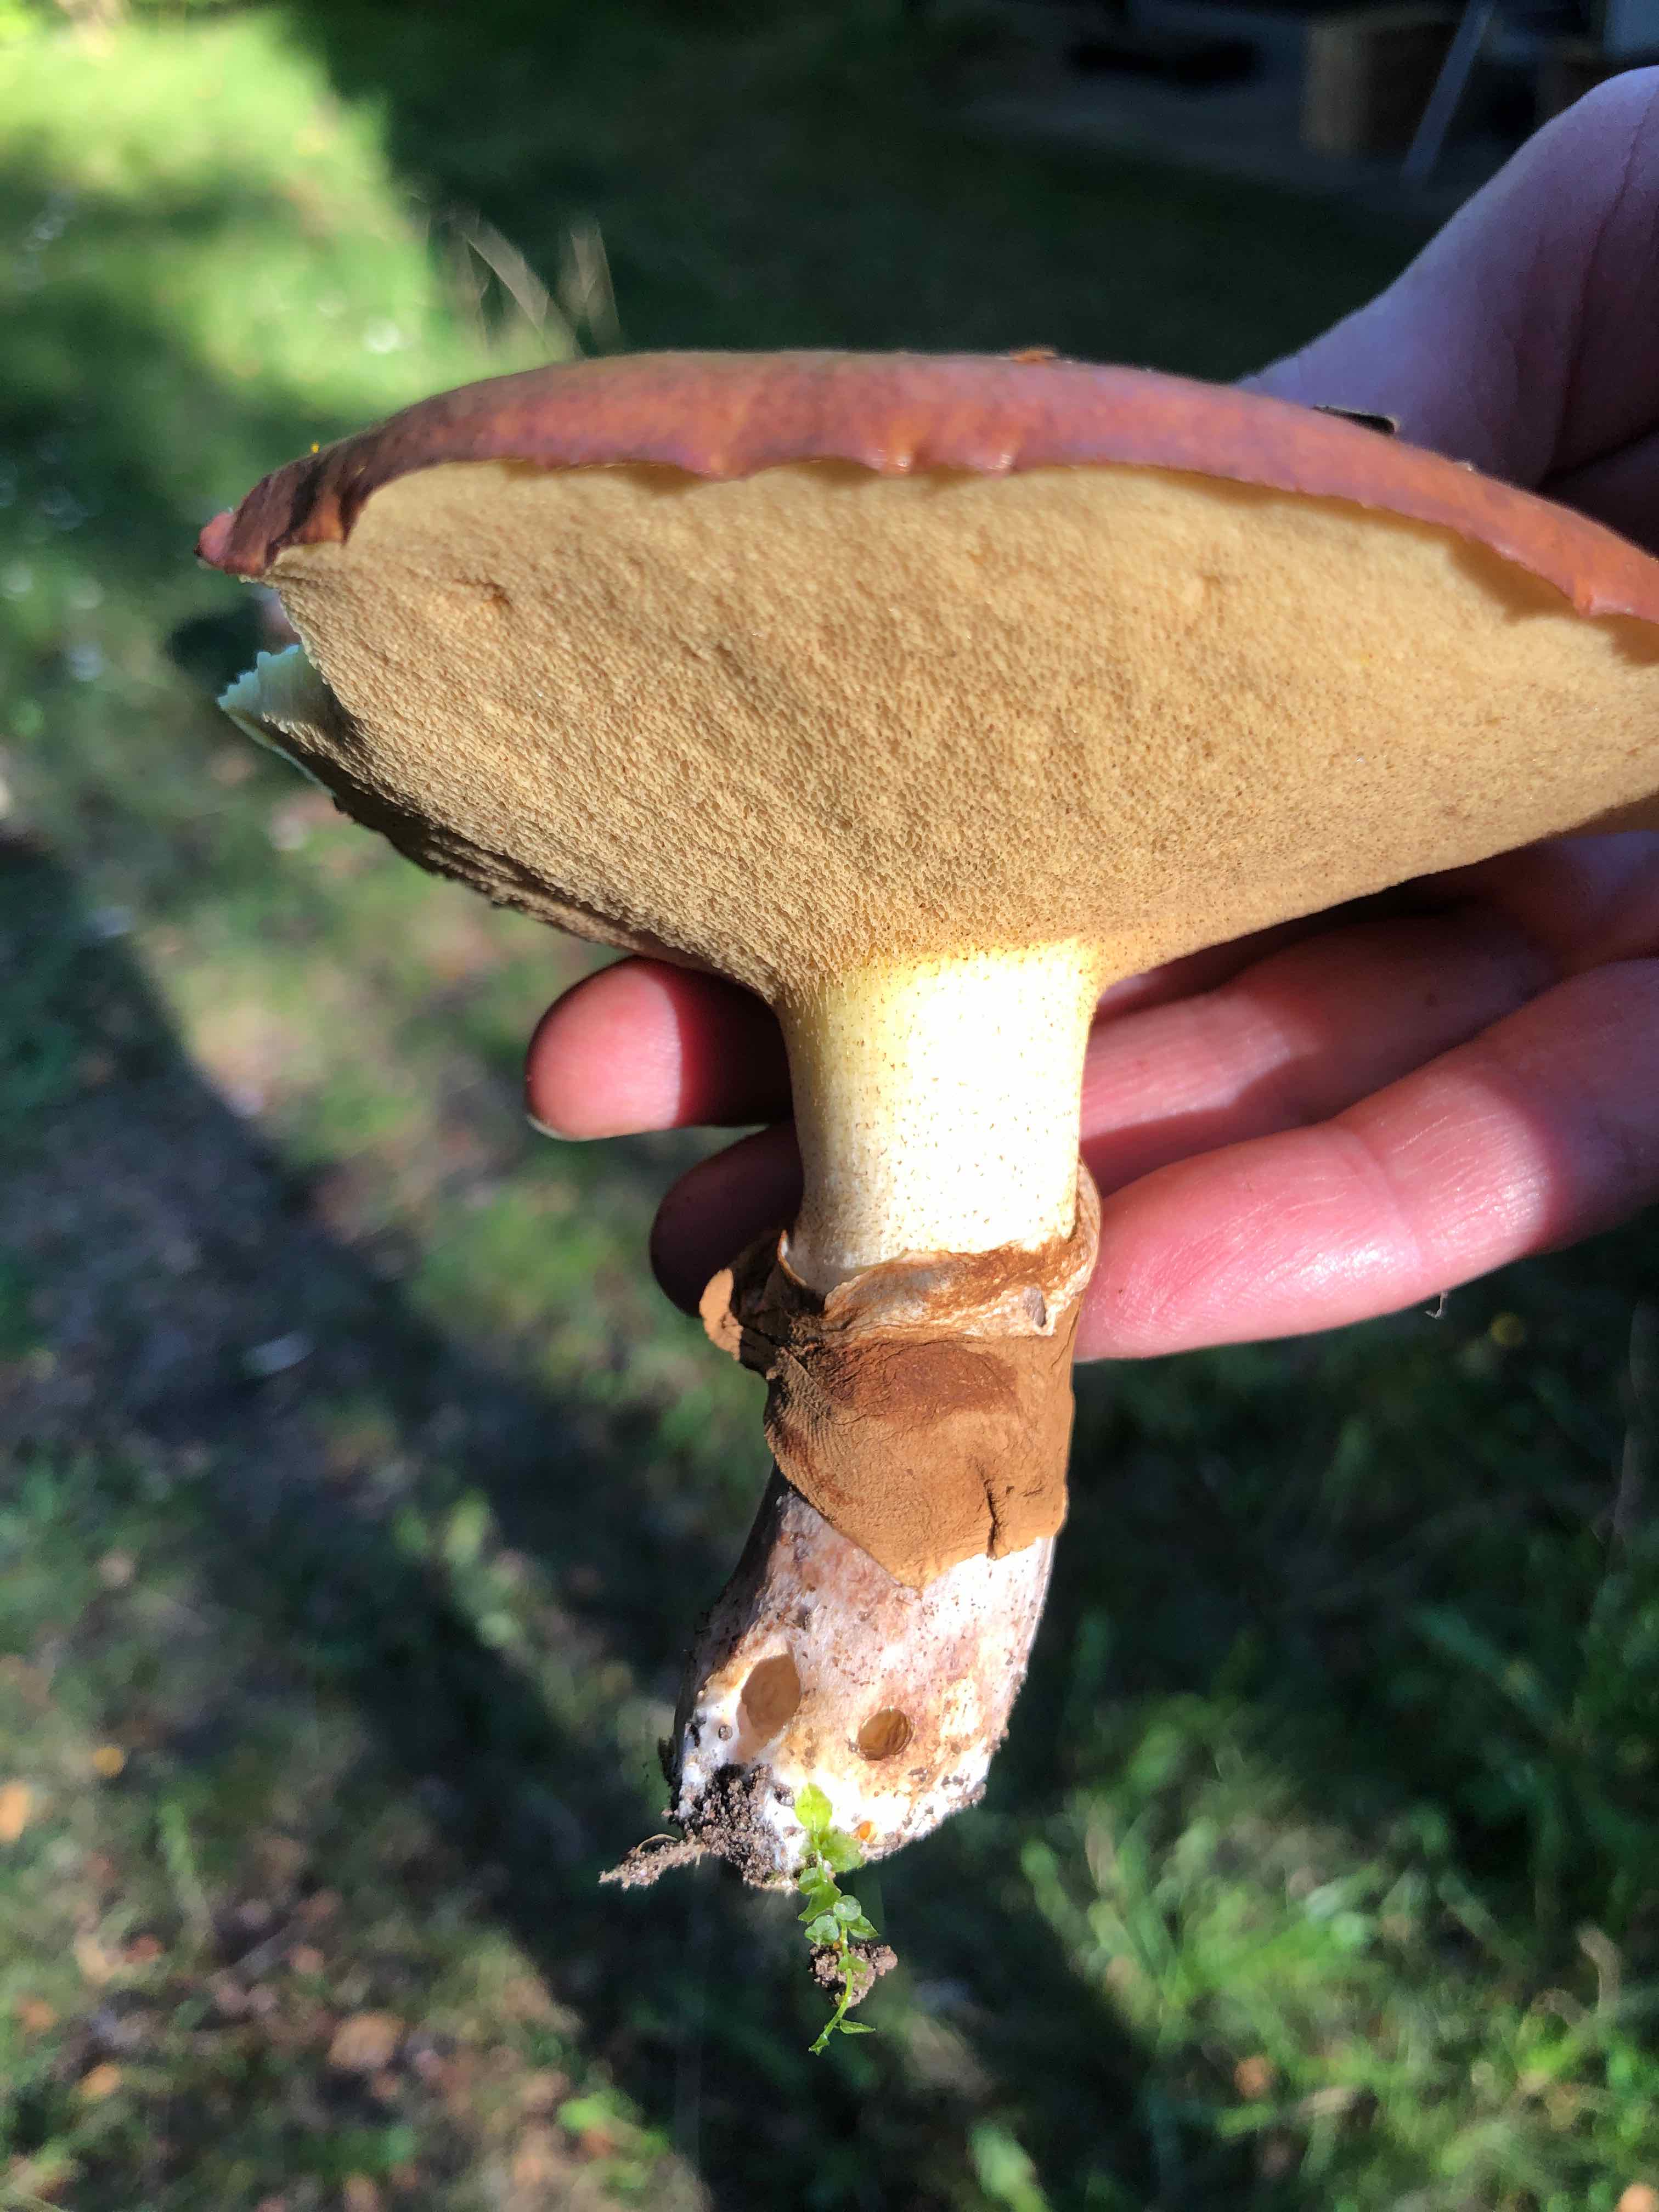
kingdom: Fungi
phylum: Basidiomycota
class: Agaricomycetes
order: Boletales
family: Suillaceae
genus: Suillus
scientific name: Suillus luteus
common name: brungul slimrørhat
